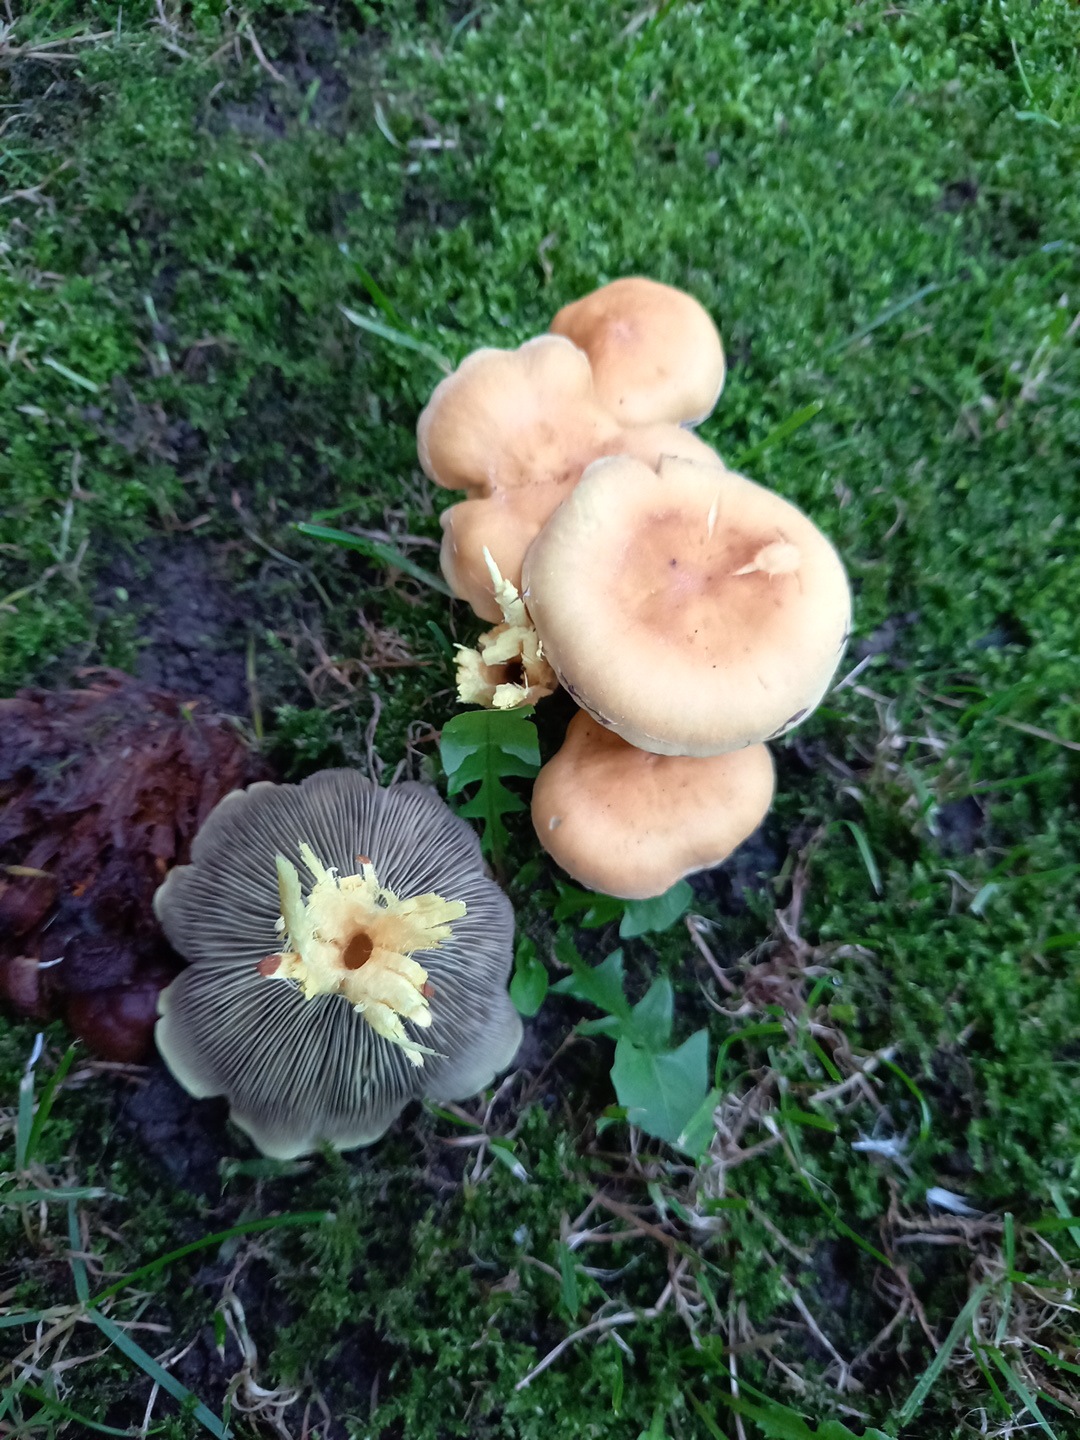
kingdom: Fungi
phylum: Basidiomycota
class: Agaricomycetes
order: Agaricales
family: Strophariaceae
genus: Hypholoma
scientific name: Hypholoma fasciculare
